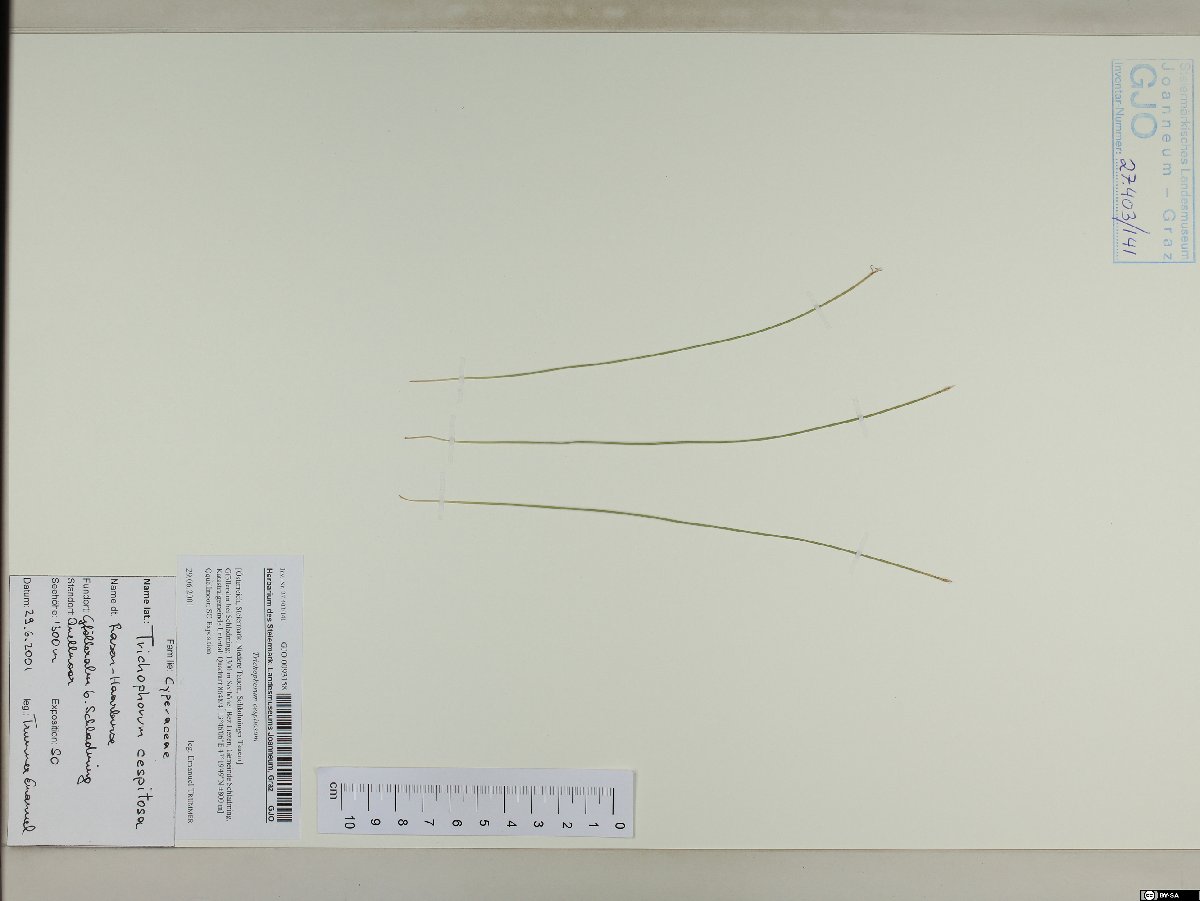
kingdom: Plantae
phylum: Tracheophyta
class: Liliopsida
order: Poales
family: Cyperaceae
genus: Trichophorum
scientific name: Trichophorum cespitosum
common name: Cespitose bulrush
